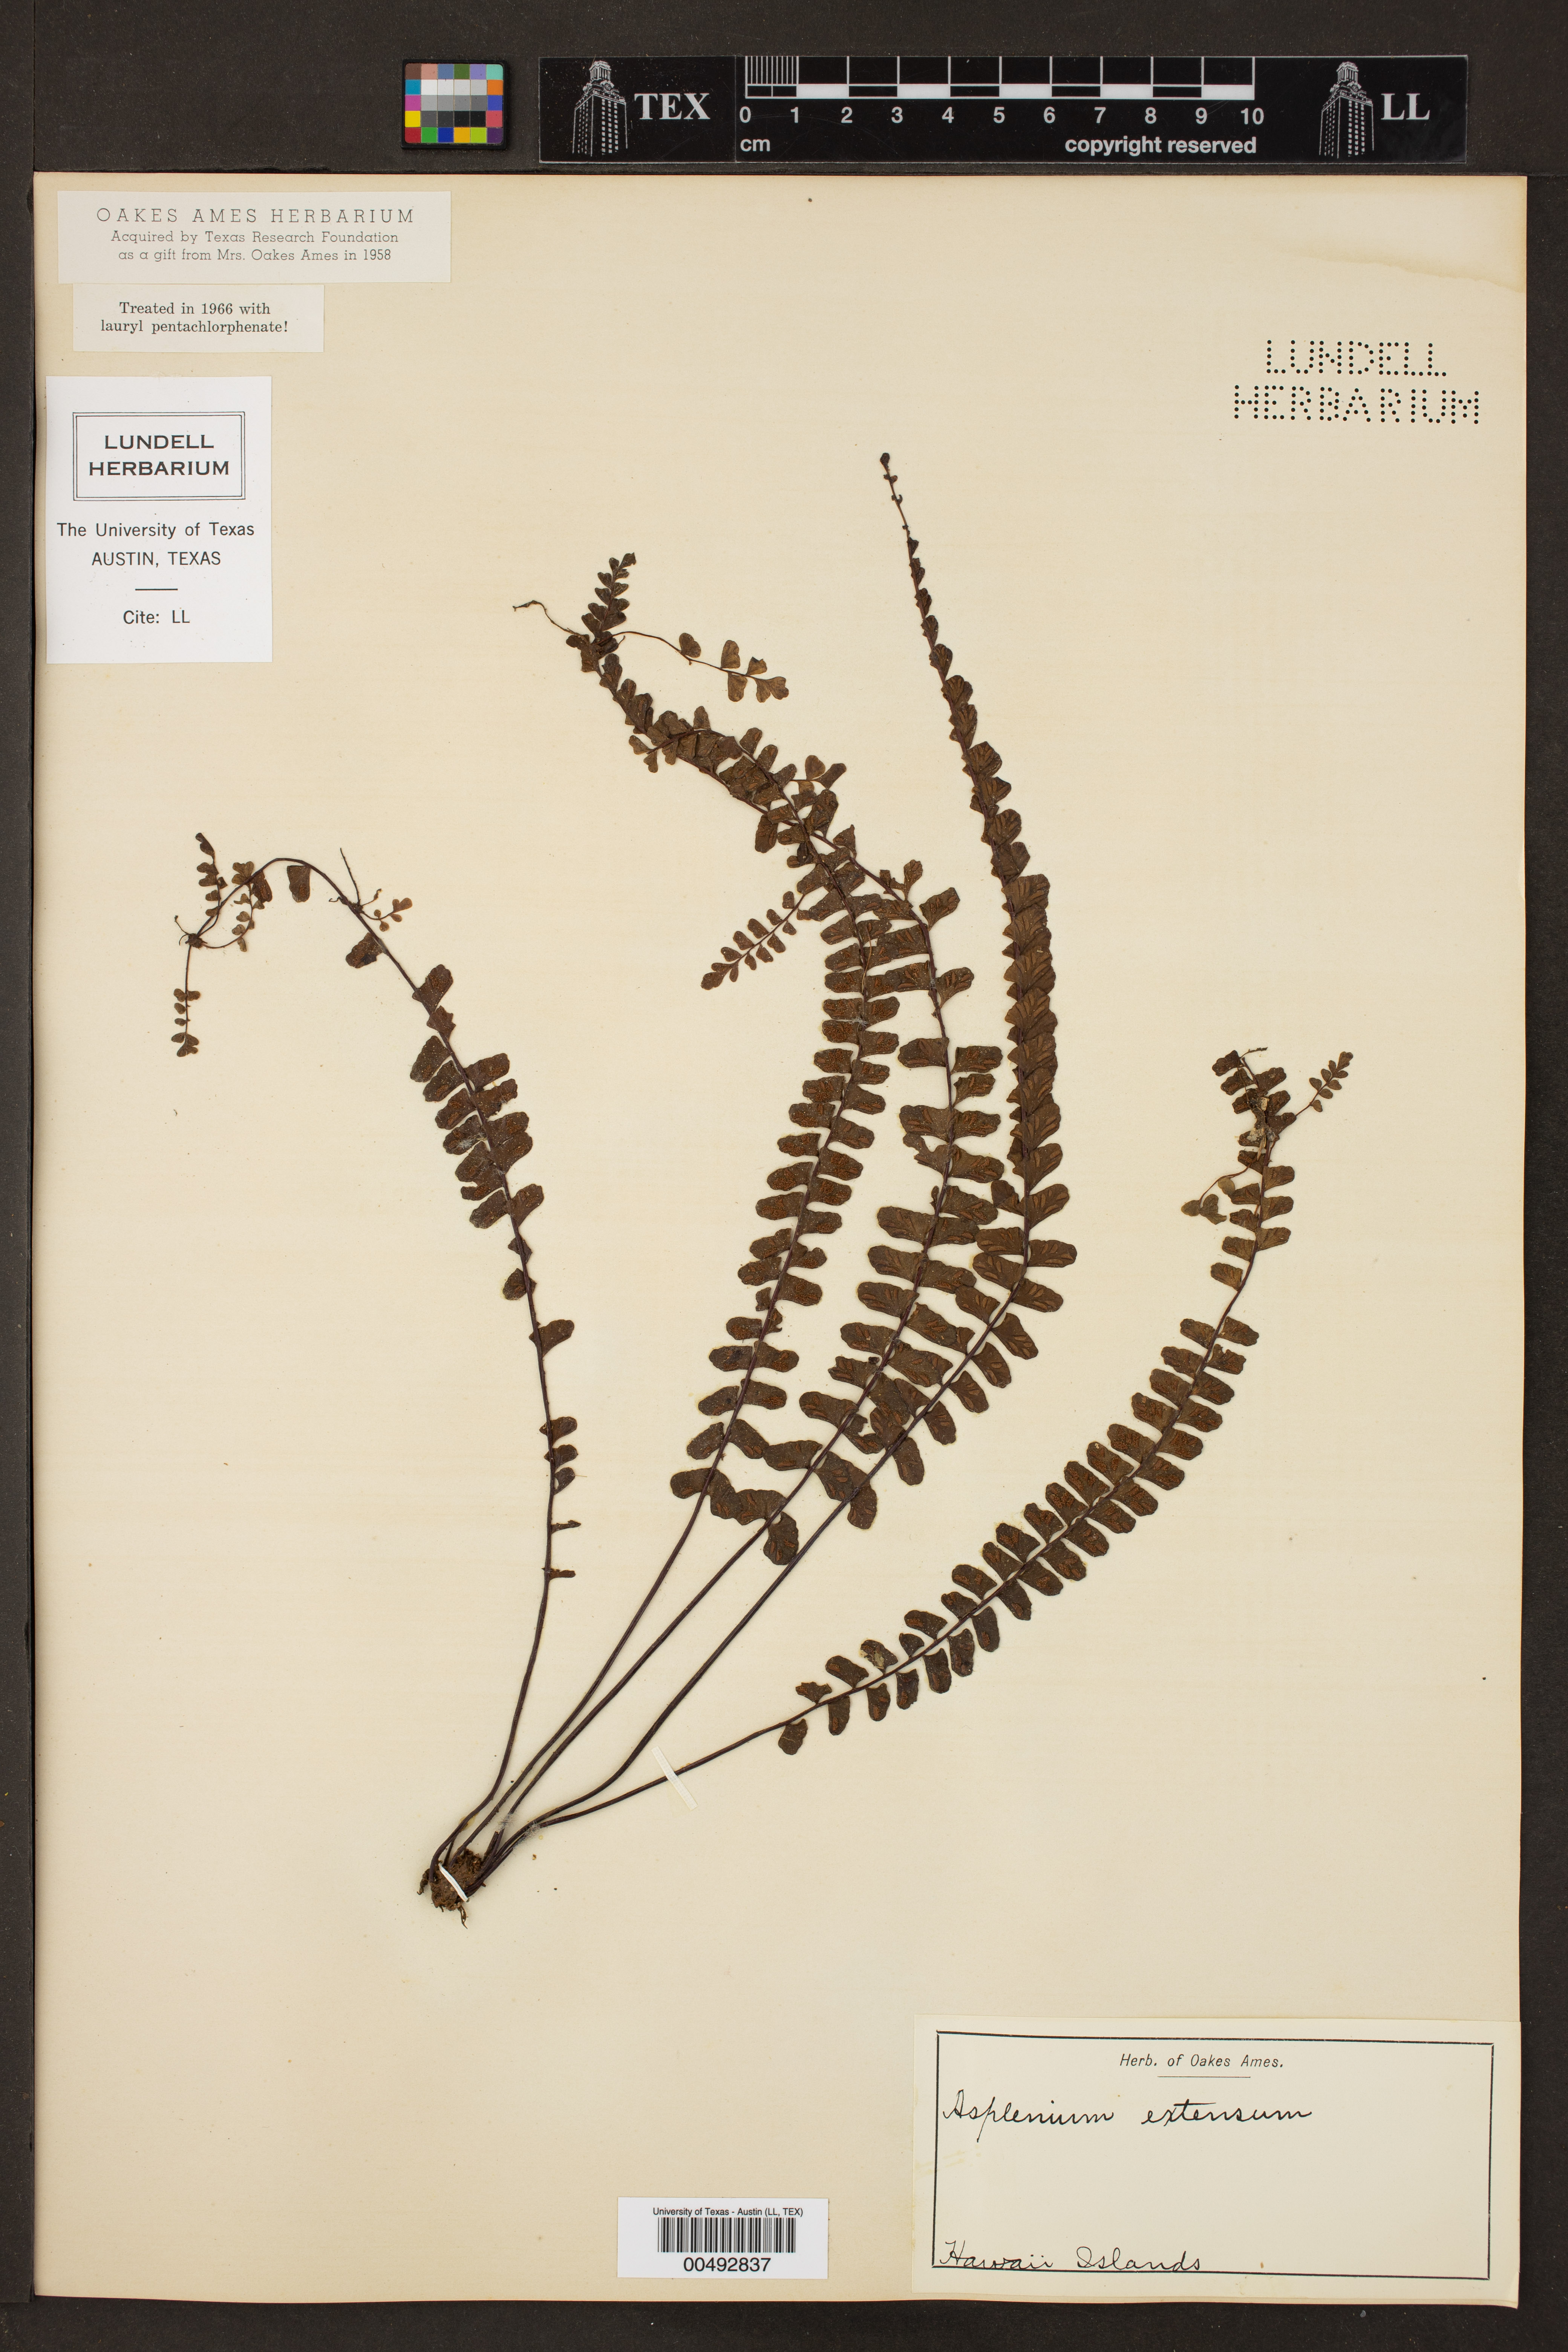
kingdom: Plantae
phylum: Tracheophyta
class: Polypodiopsida
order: Polypodiales
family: Aspleniaceae
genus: Asplenium
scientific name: Asplenium extensum
